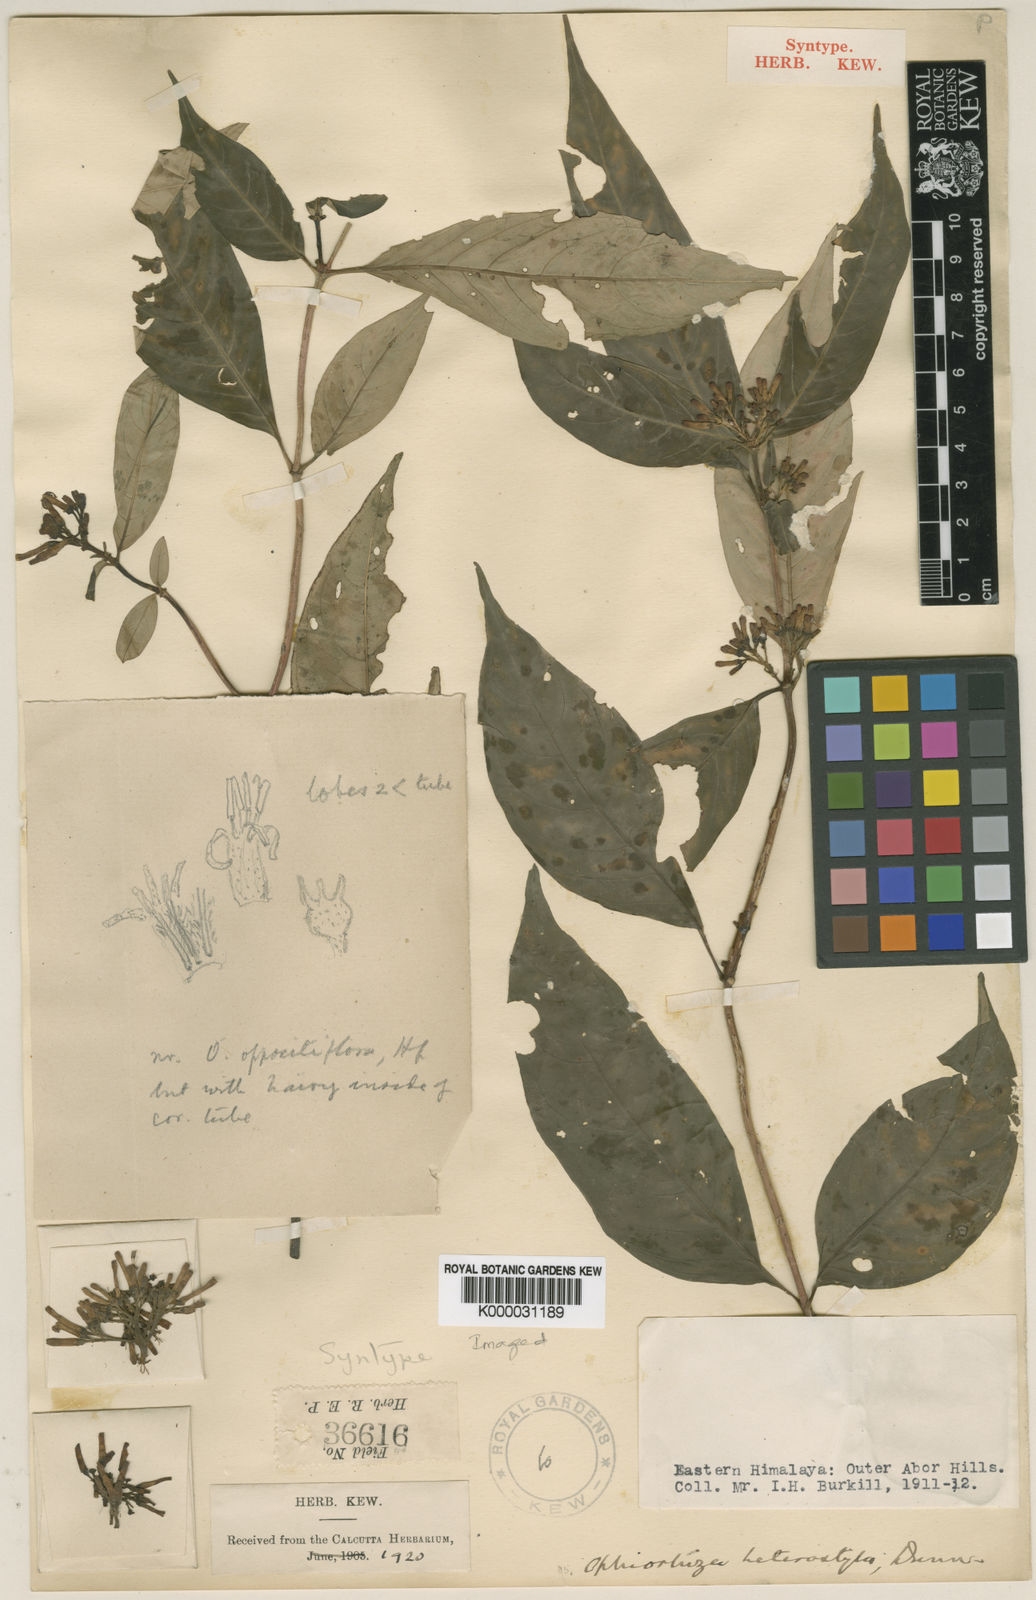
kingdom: Plantae
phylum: Tracheophyta
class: Magnoliopsida
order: Gentianales
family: Rubiaceae
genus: Ophiorrhiza
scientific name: Ophiorrhiza heterostyla
